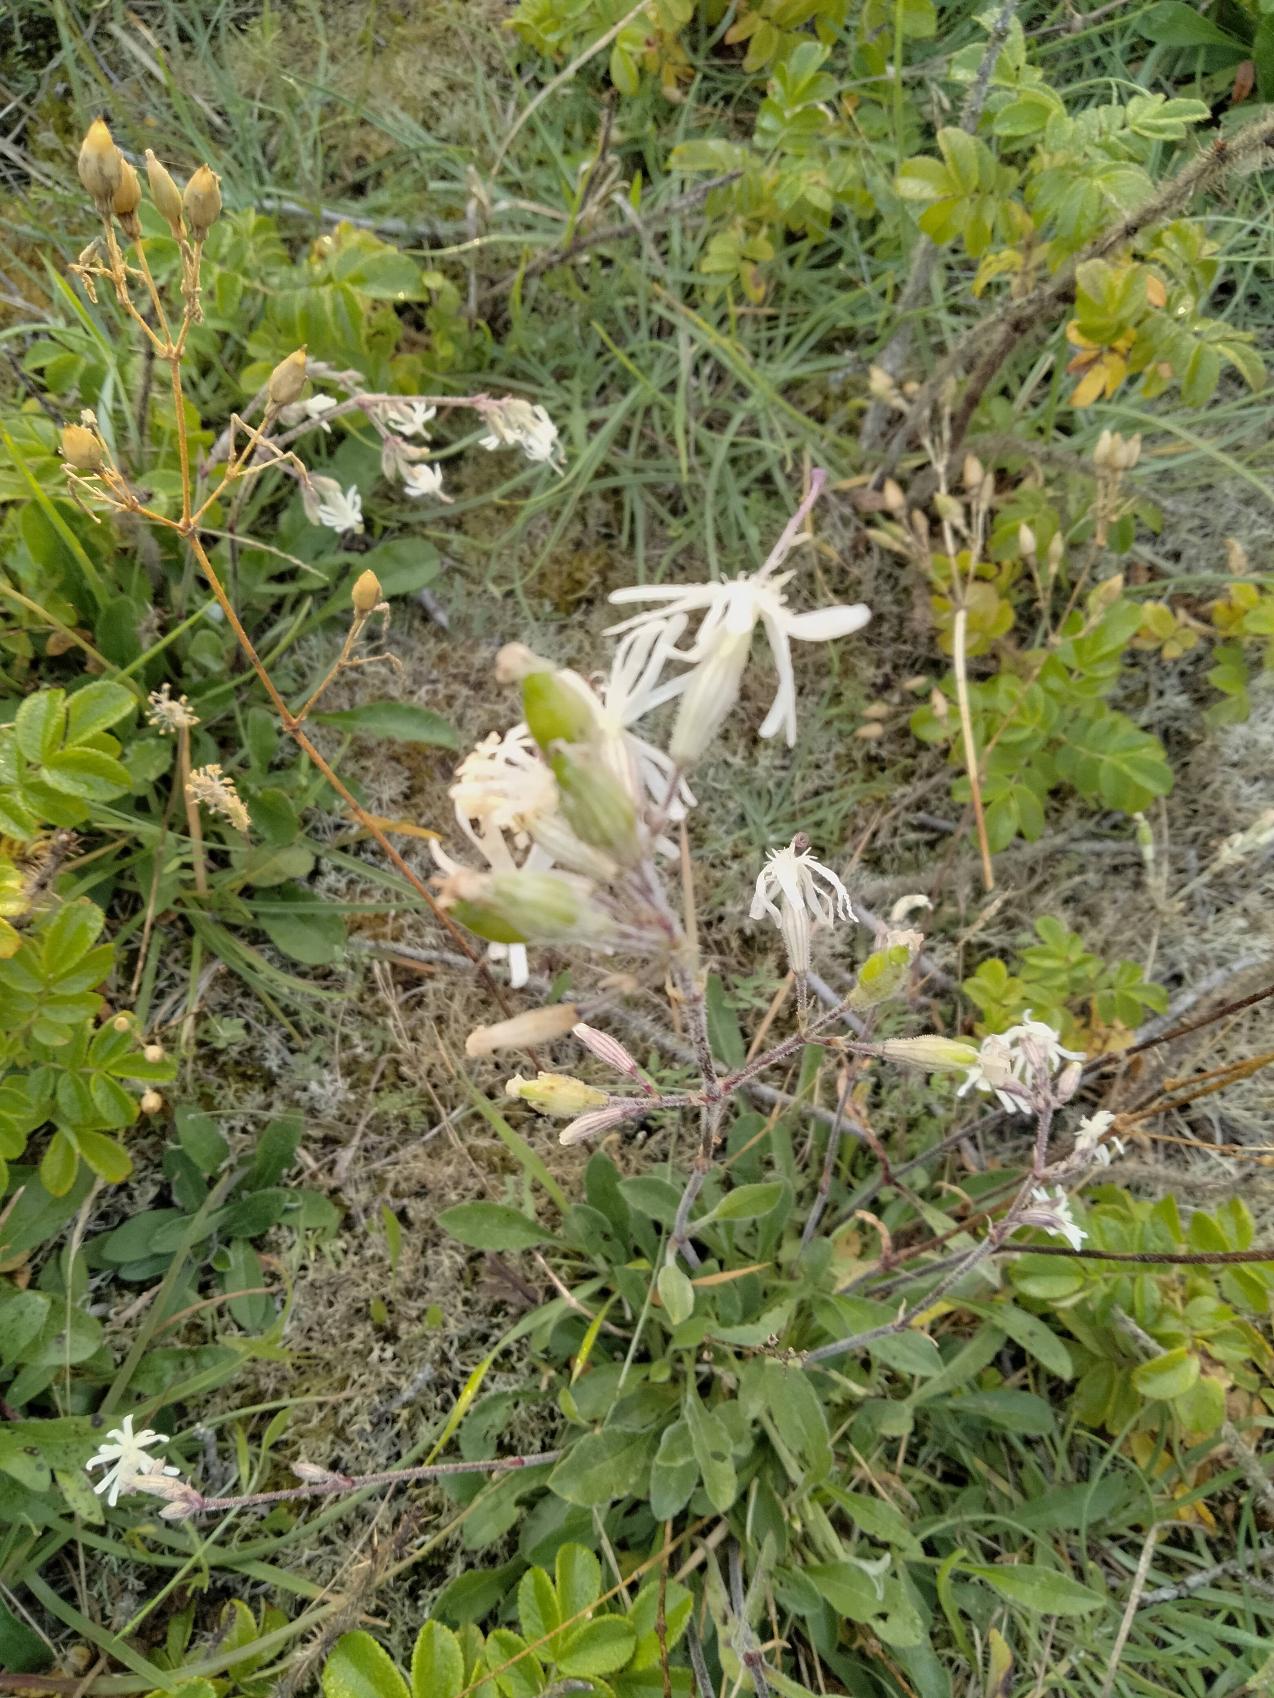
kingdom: Plantae
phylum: Tracheophyta
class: Magnoliopsida
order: Caryophyllales
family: Caryophyllaceae
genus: Silene
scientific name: Silene nutans
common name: Nikkende limurt
